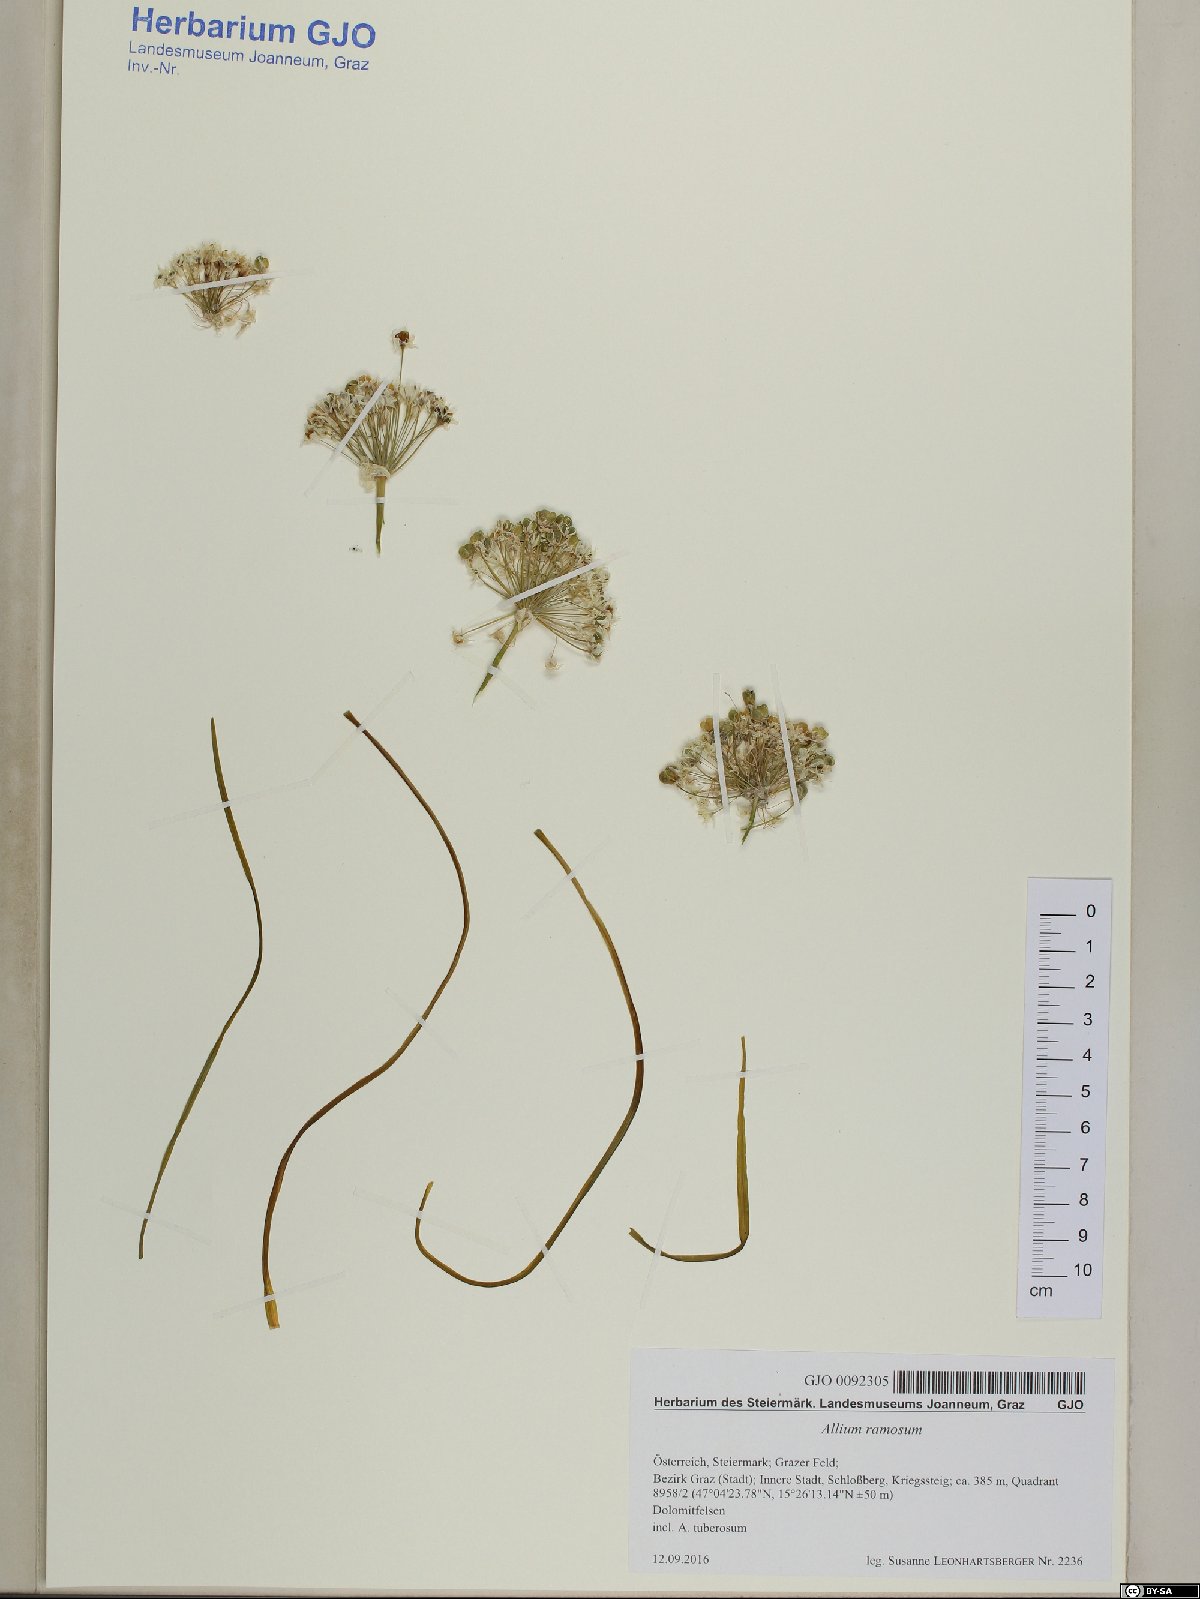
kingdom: Plantae
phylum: Tracheophyta
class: Liliopsida
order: Asparagales
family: Amaryllidaceae
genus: Allium
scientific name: Allium tuberosum
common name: Chinese chives
